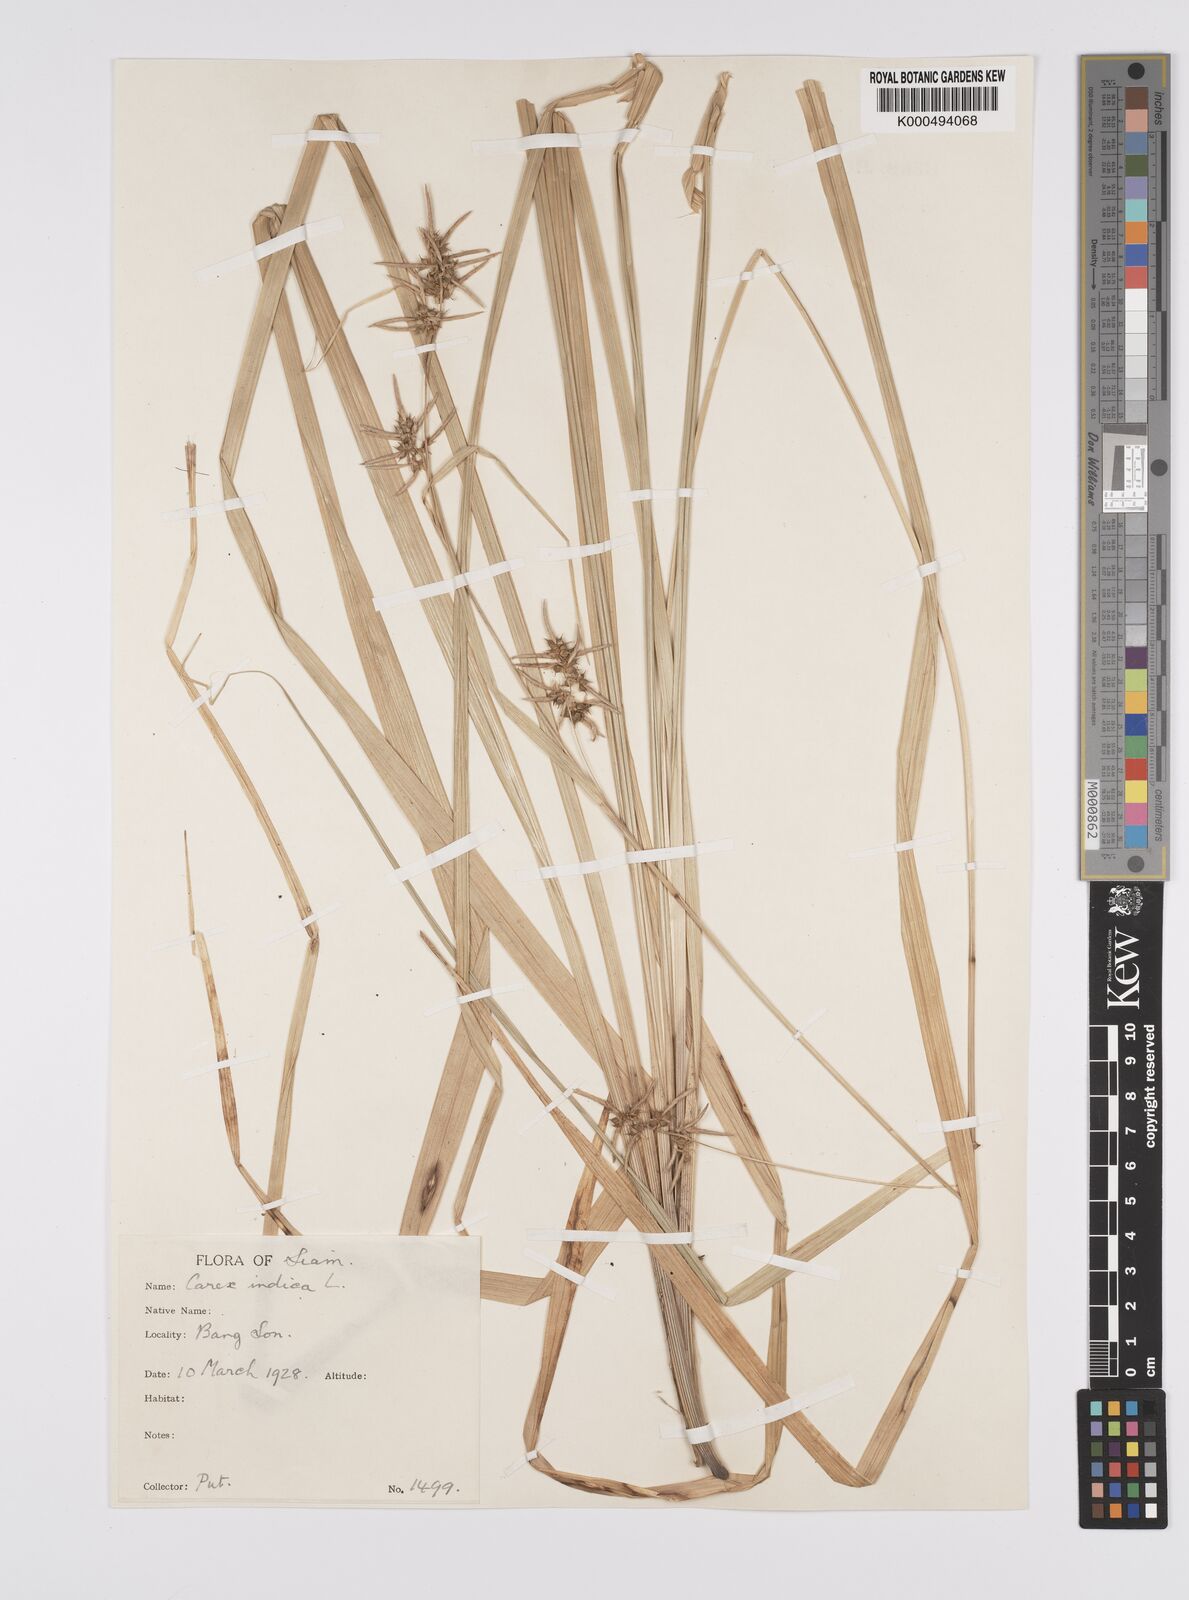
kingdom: Plantae
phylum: Tracheophyta
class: Liliopsida
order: Poales
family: Cyperaceae
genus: Carex
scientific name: Carex indica
